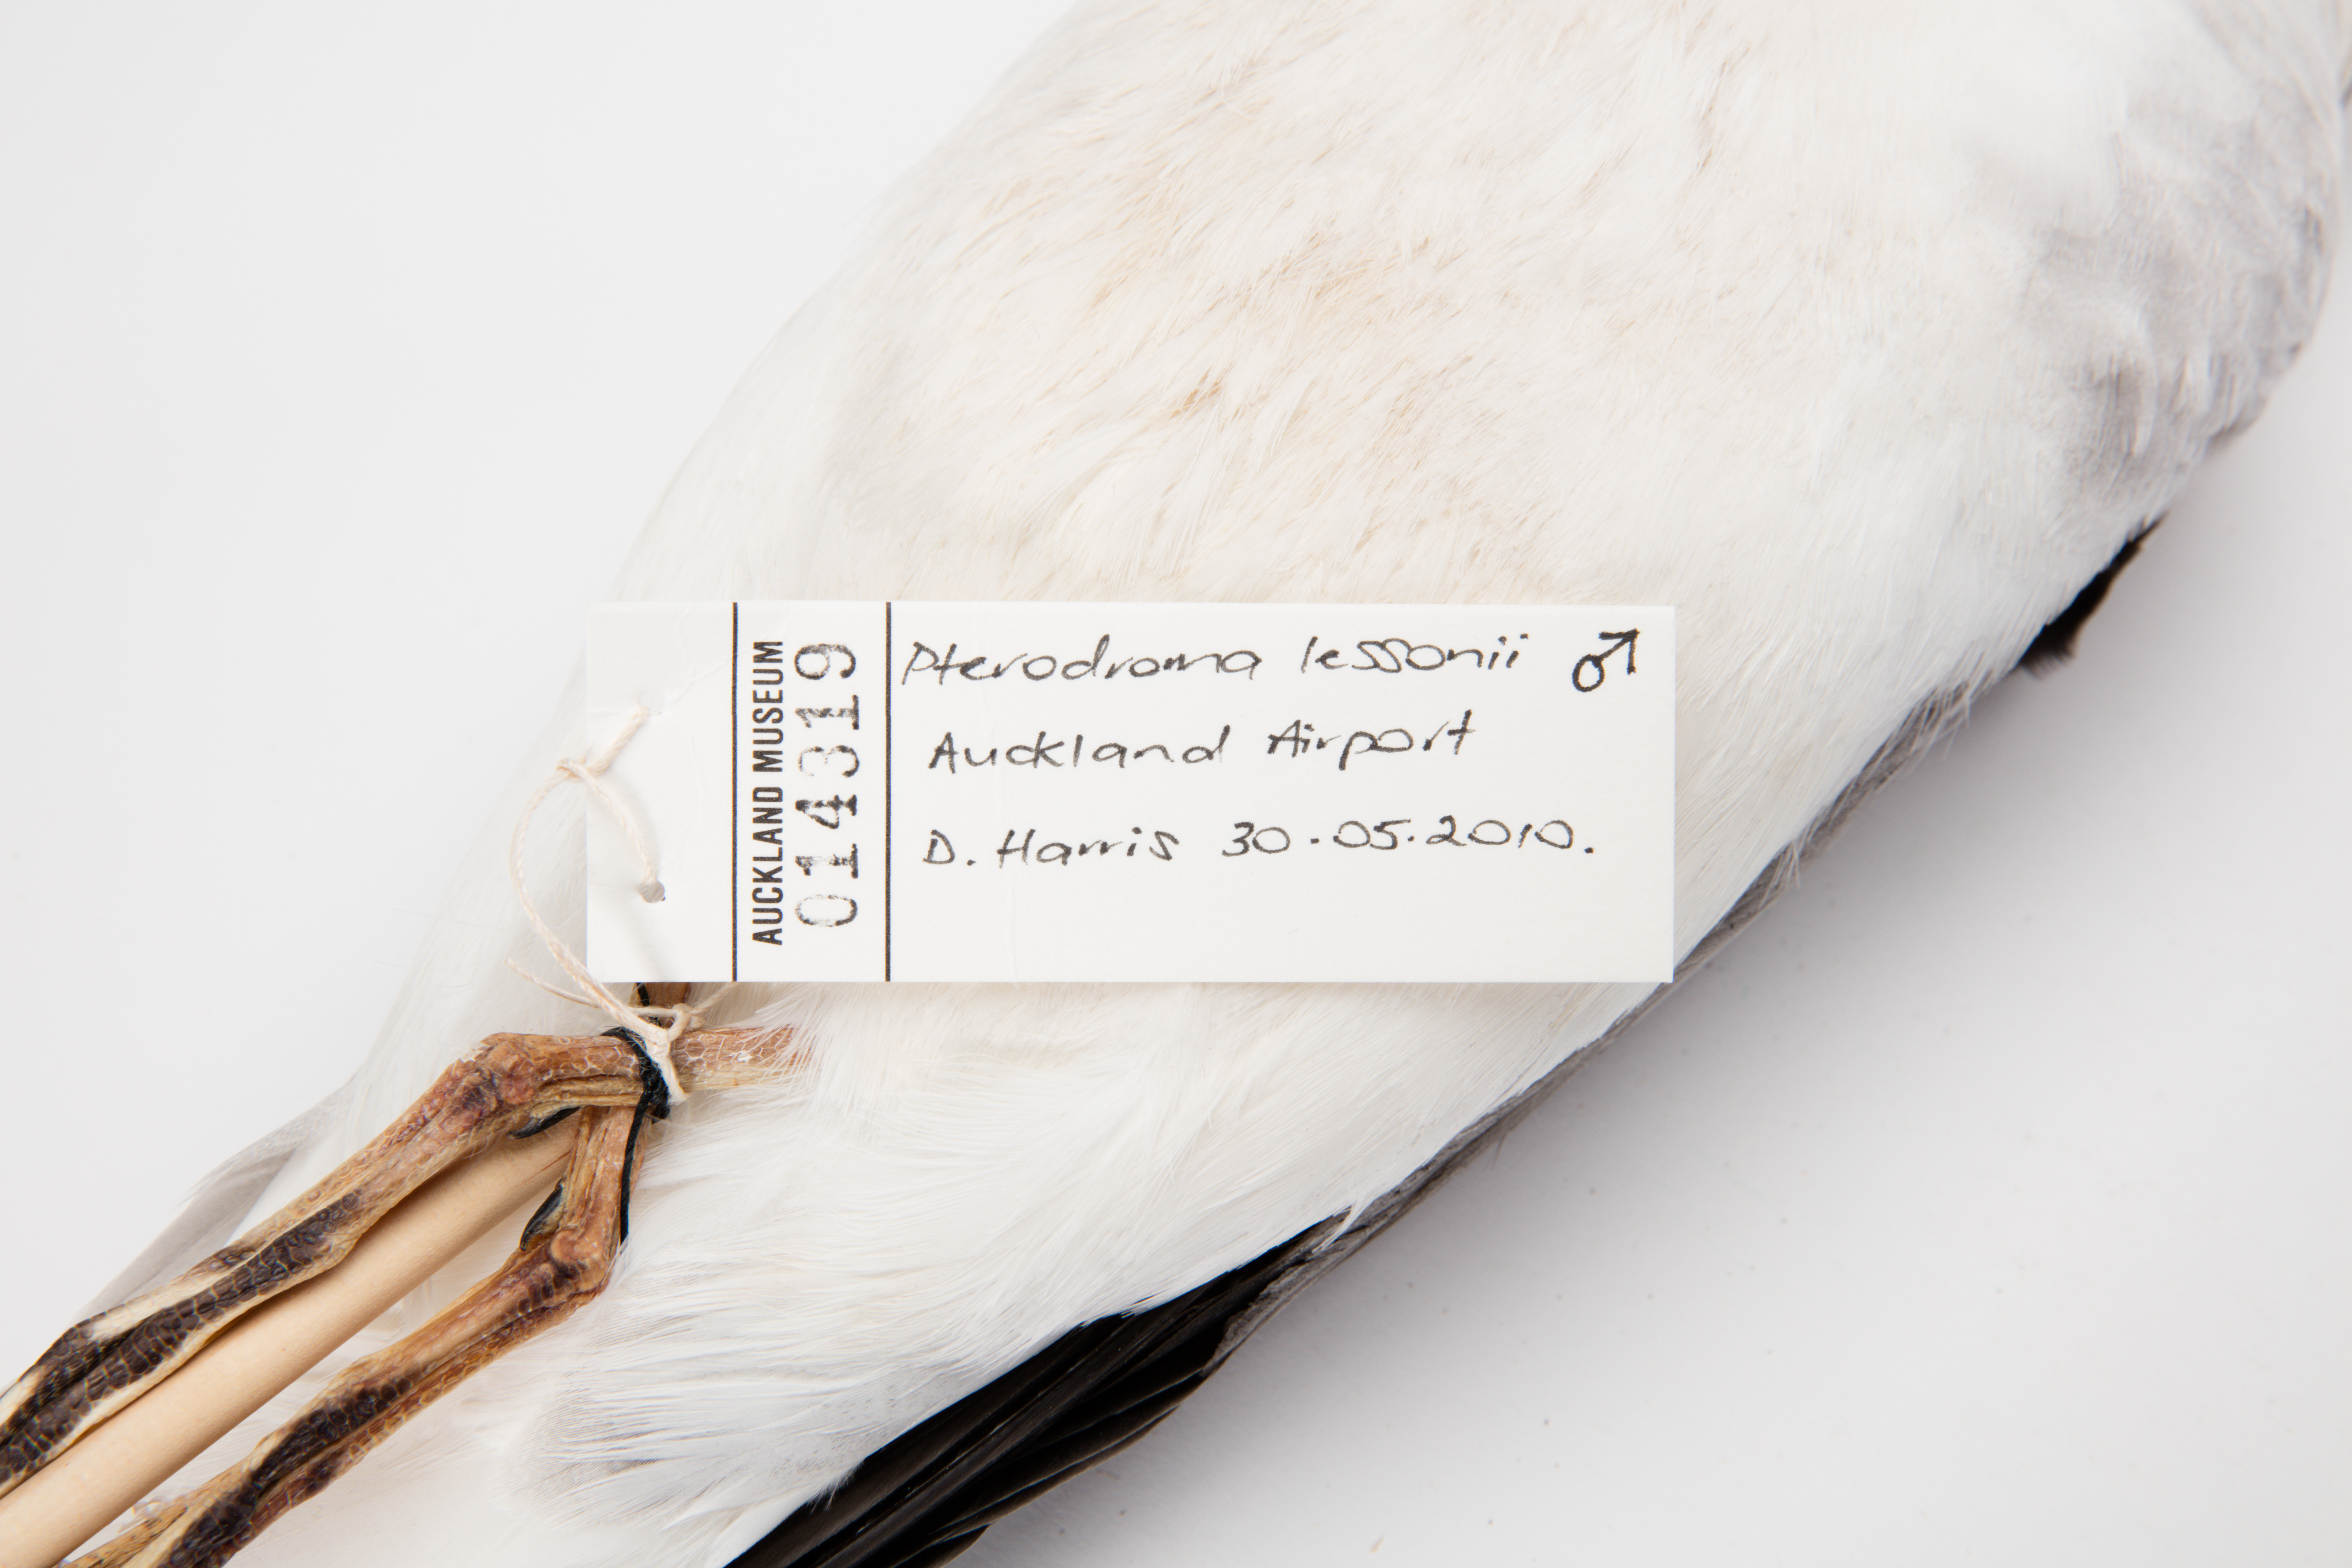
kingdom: Animalia
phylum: Chordata
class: Aves
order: Procellariiformes
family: Procellariidae
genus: Pterodroma
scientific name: Pterodroma lessonii
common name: White-headed petrel
